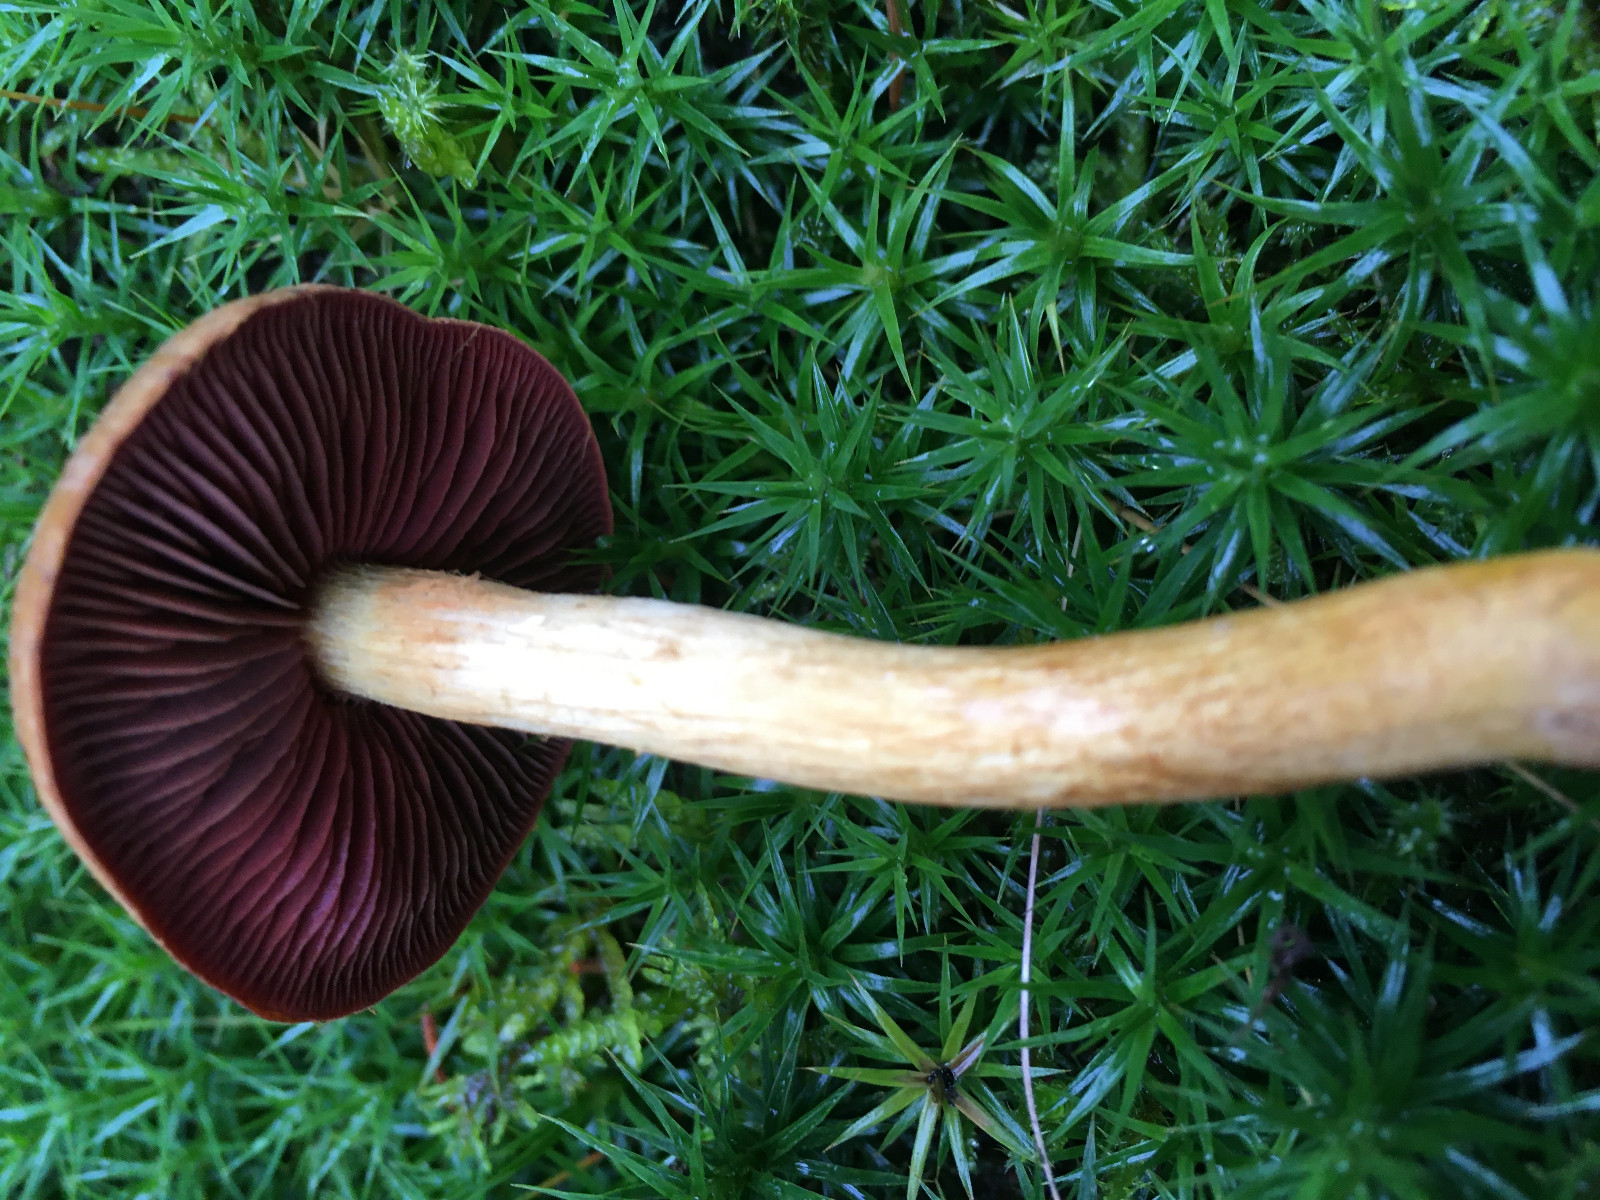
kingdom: Fungi
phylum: Basidiomycota
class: Agaricomycetes
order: Agaricales
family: Cortinariaceae
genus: Cortinarius
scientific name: Cortinarius
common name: cinnoberbladet slørhat
